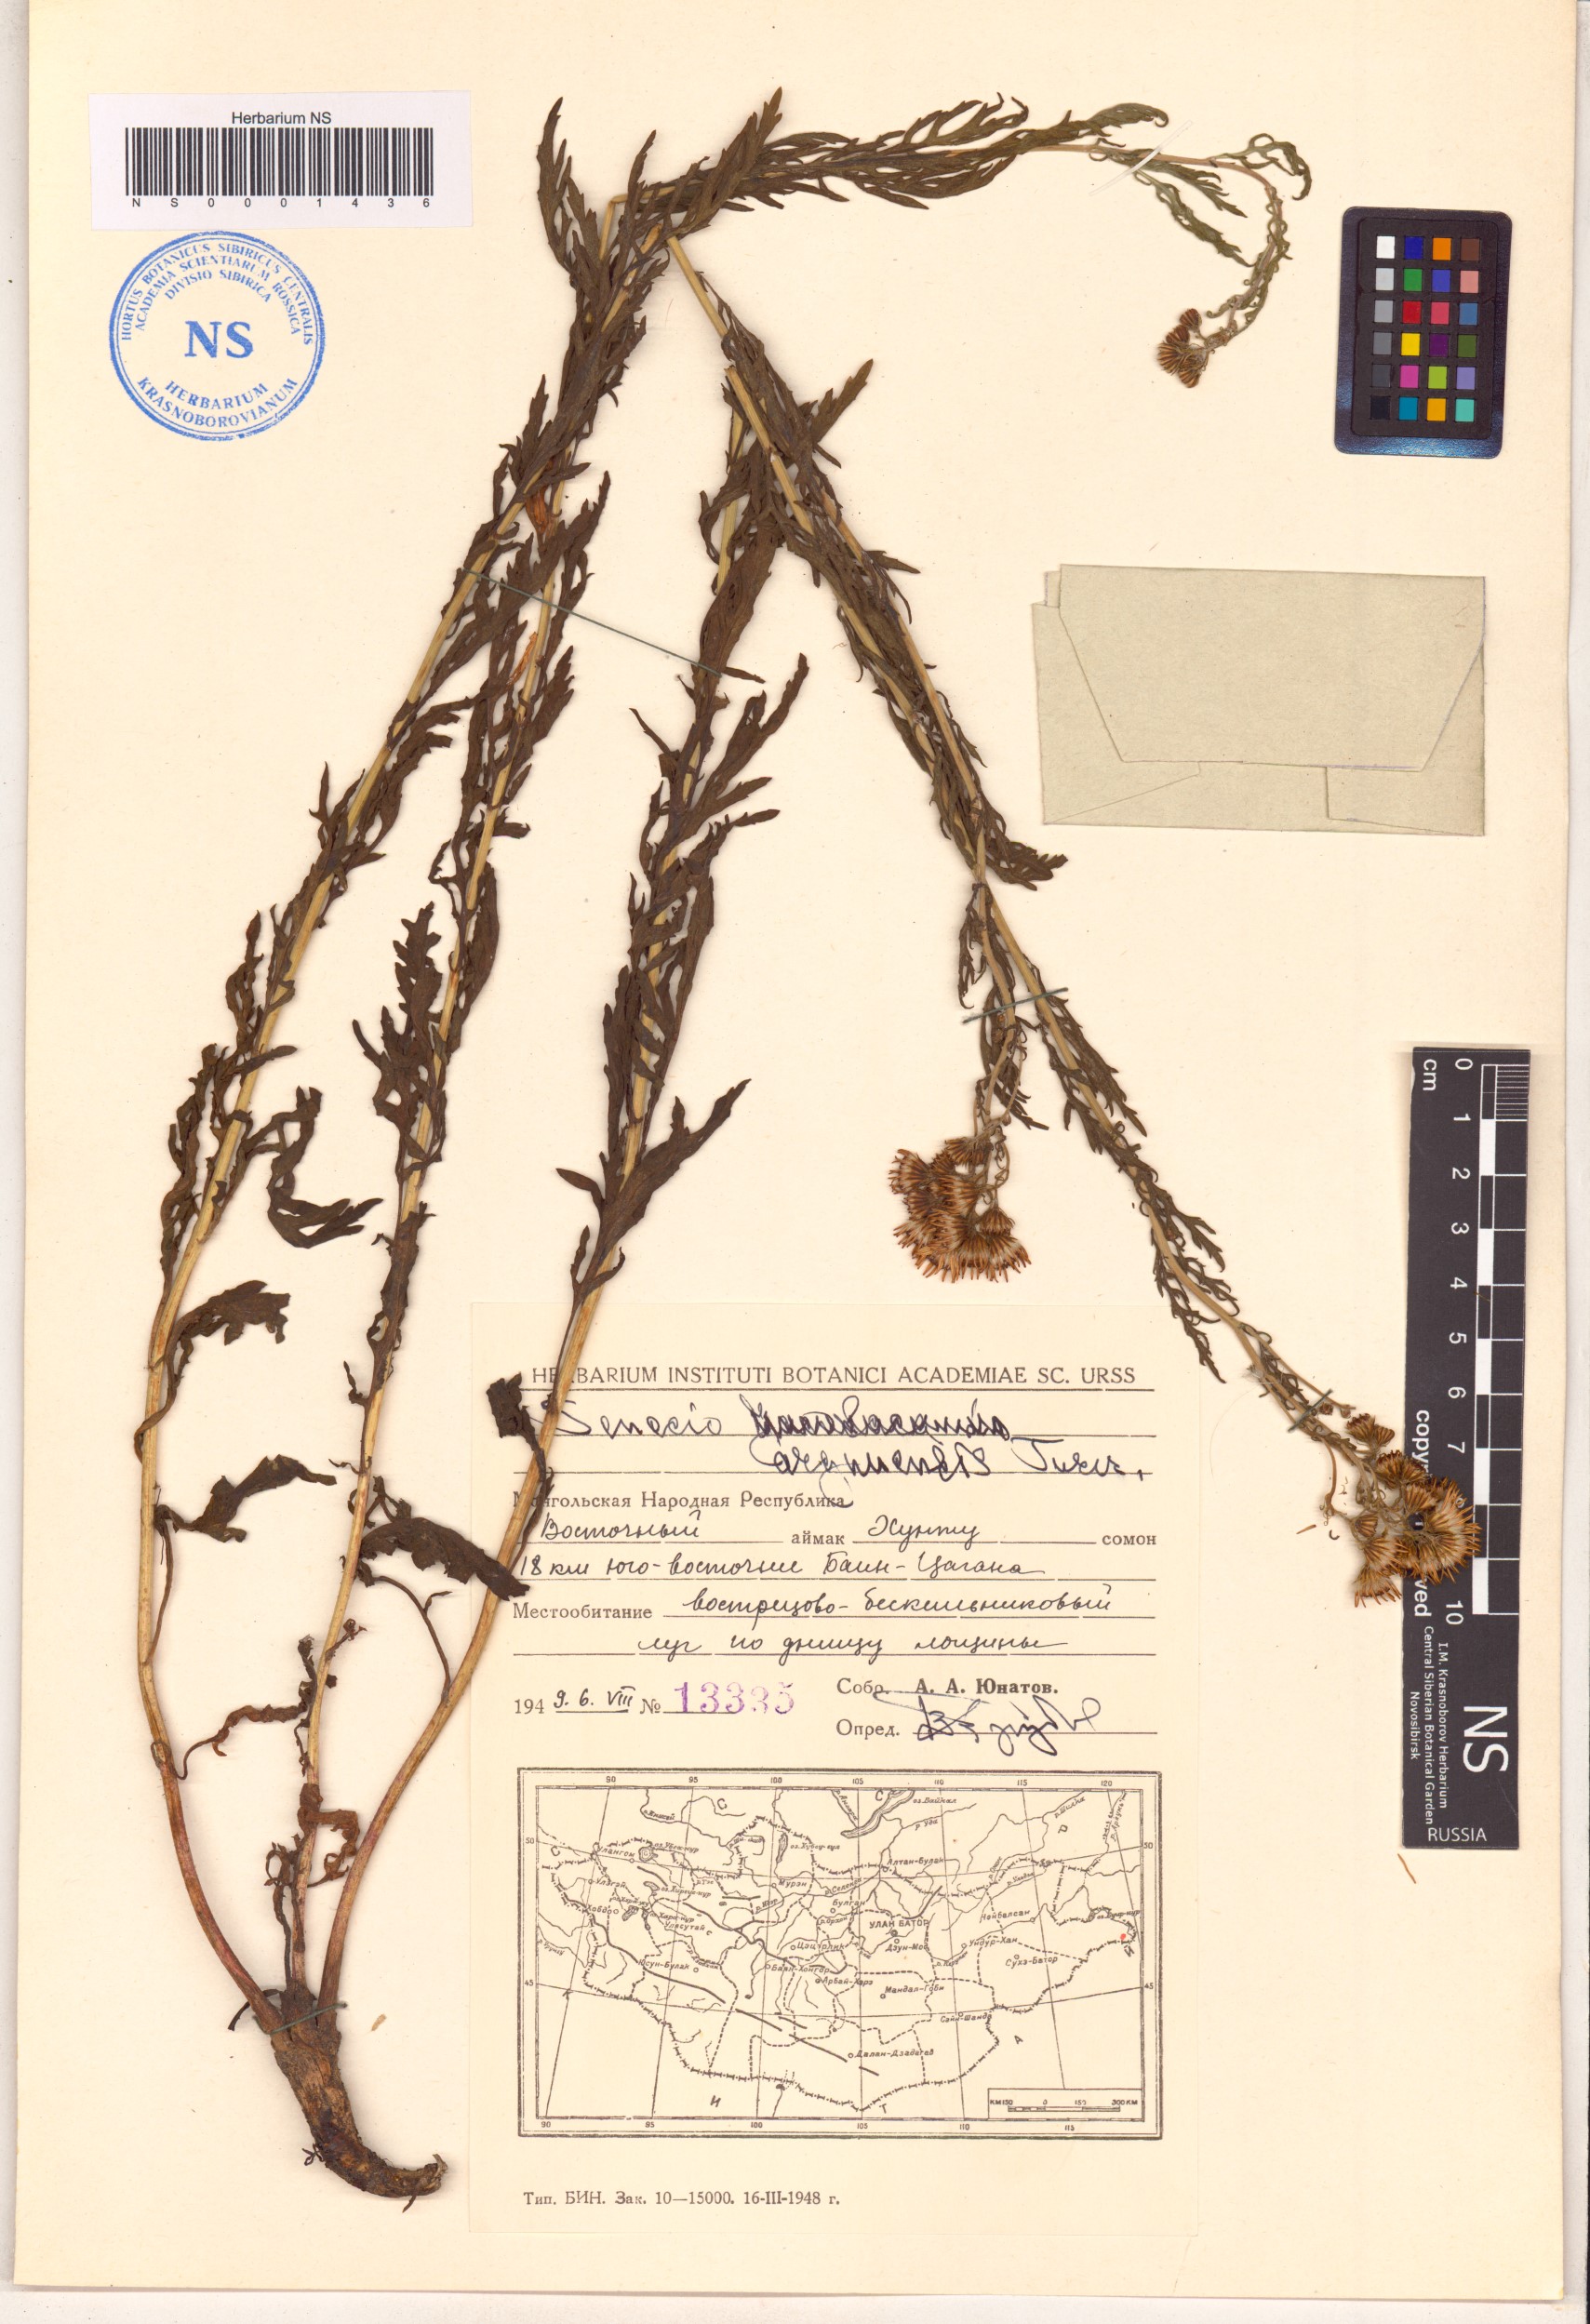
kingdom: Plantae
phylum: Tracheophyta
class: Magnoliopsida
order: Asterales
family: Asteraceae
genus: Jacobaea
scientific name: Jacobaea erucifolia
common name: Hoary ragwort
